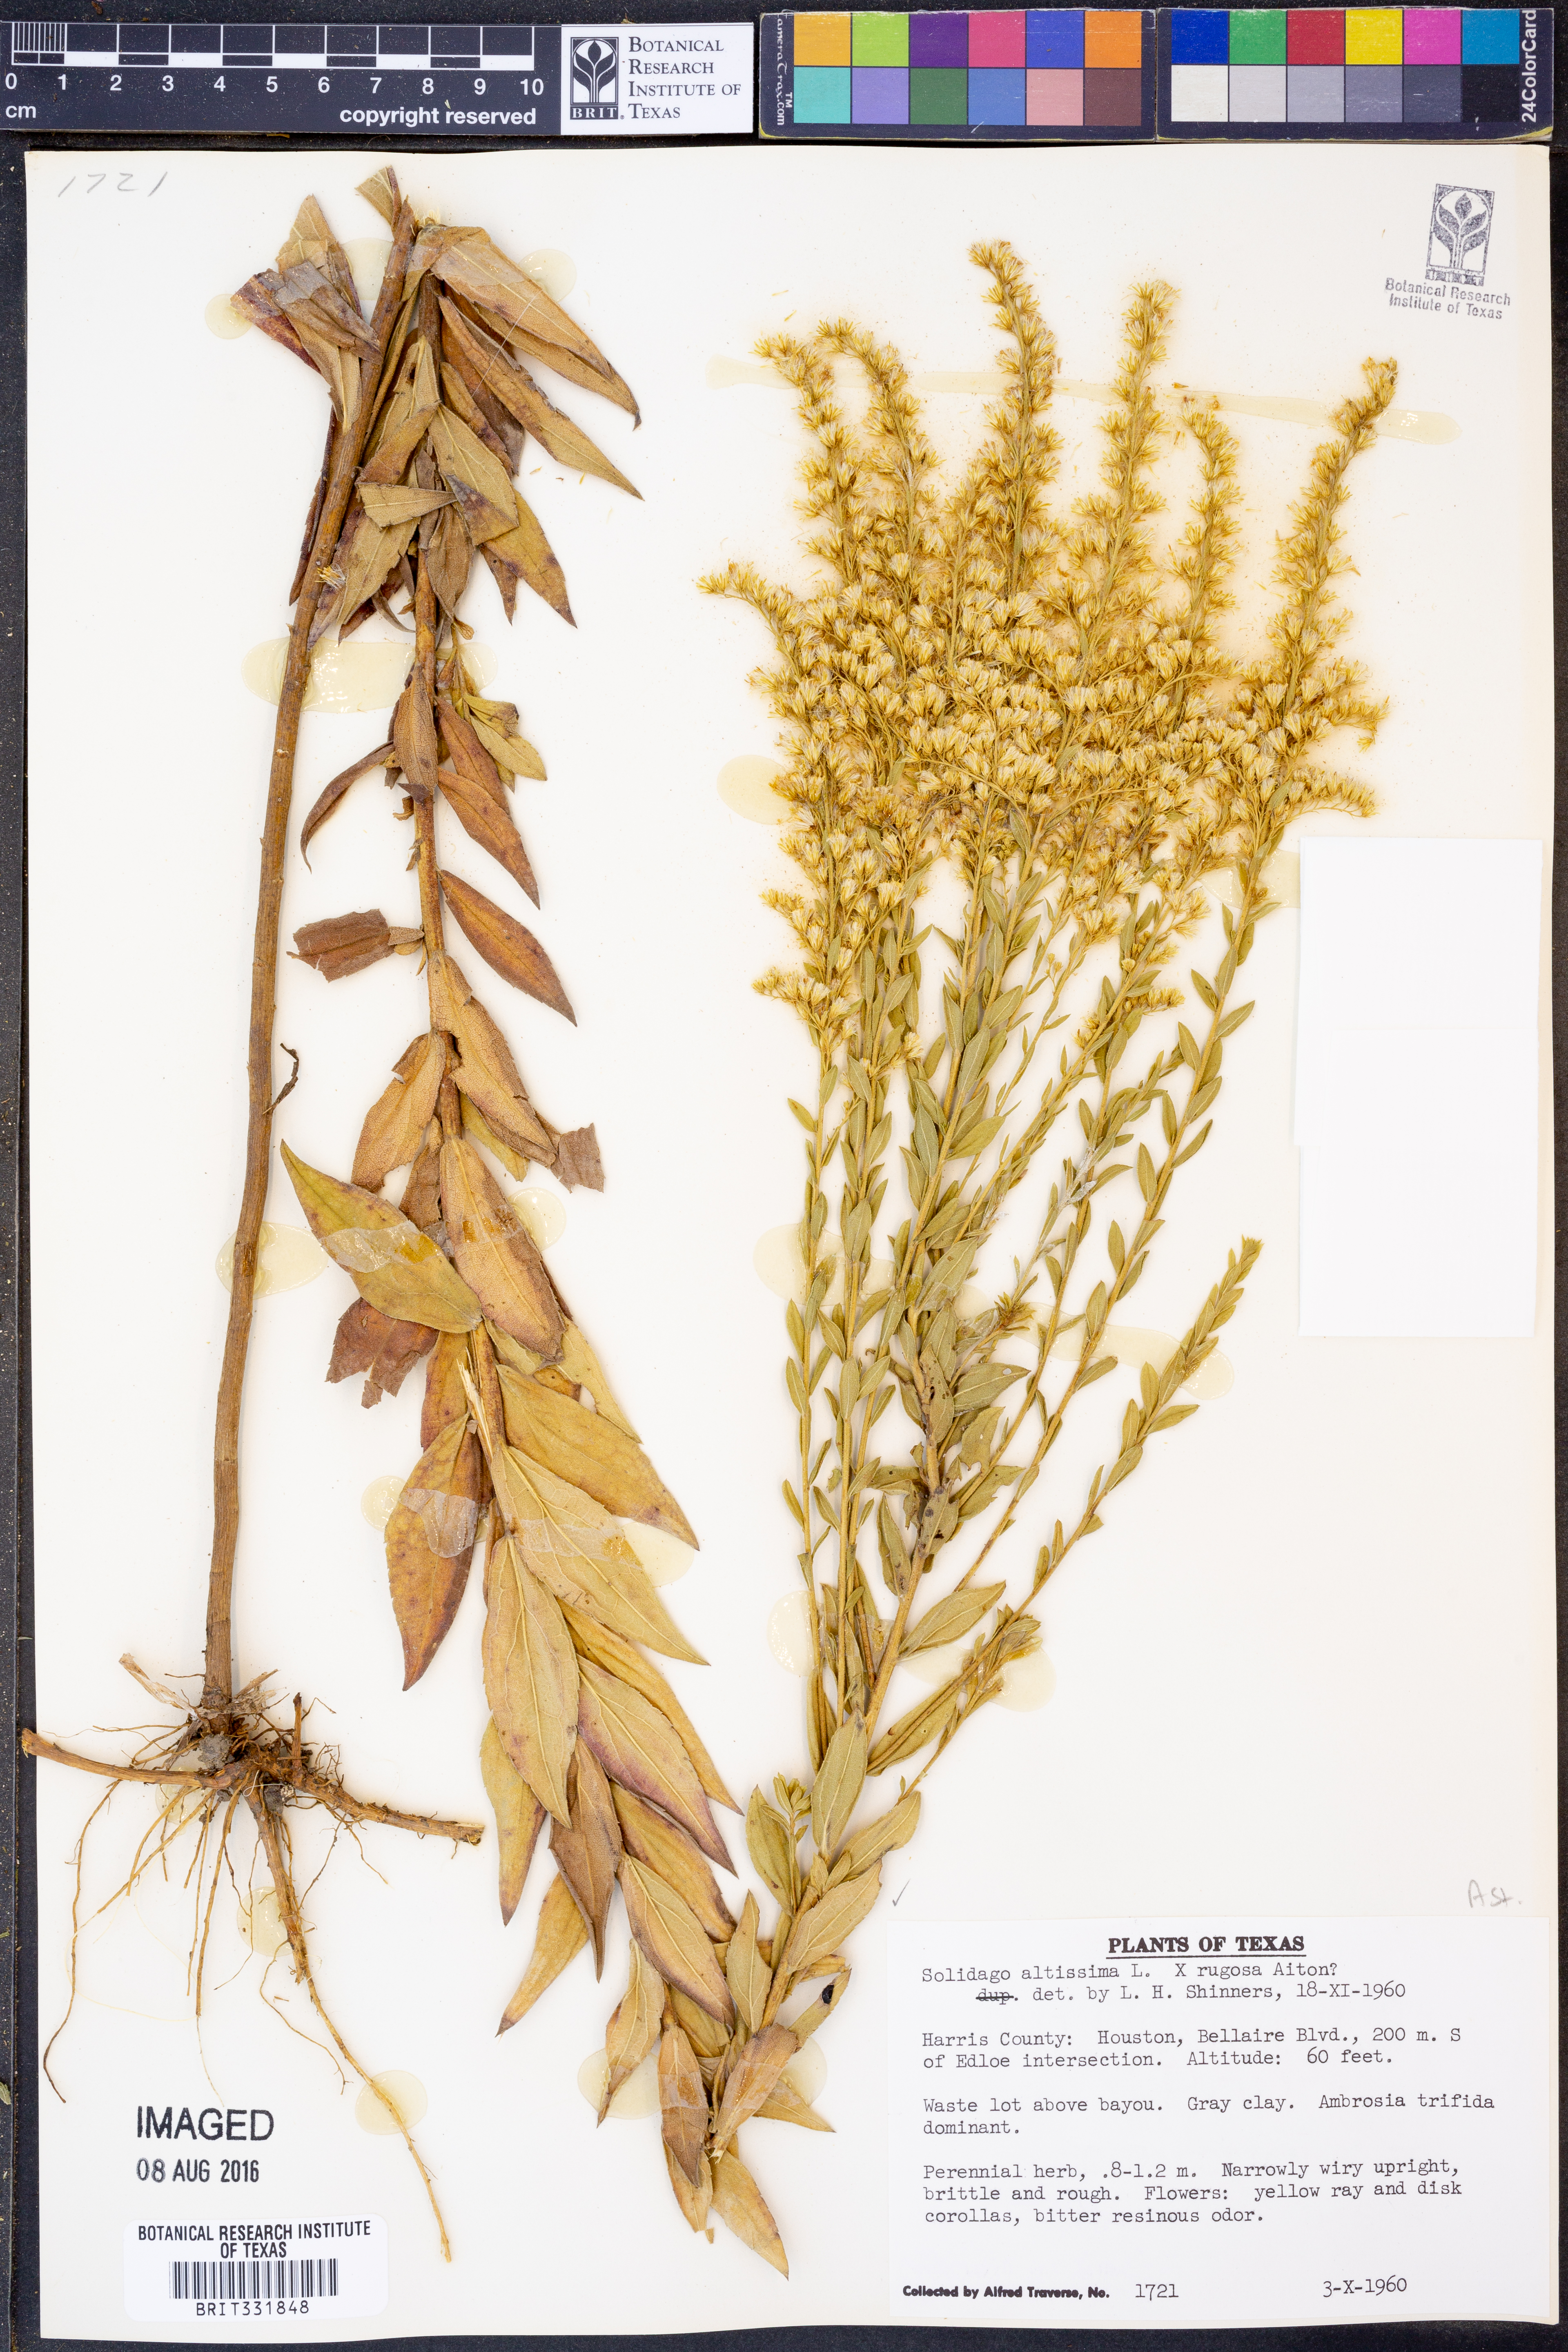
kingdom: Plantae
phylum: Tracheophyta
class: Magnoliopsida
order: Asterales
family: Asteraceae
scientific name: Asteraceae
